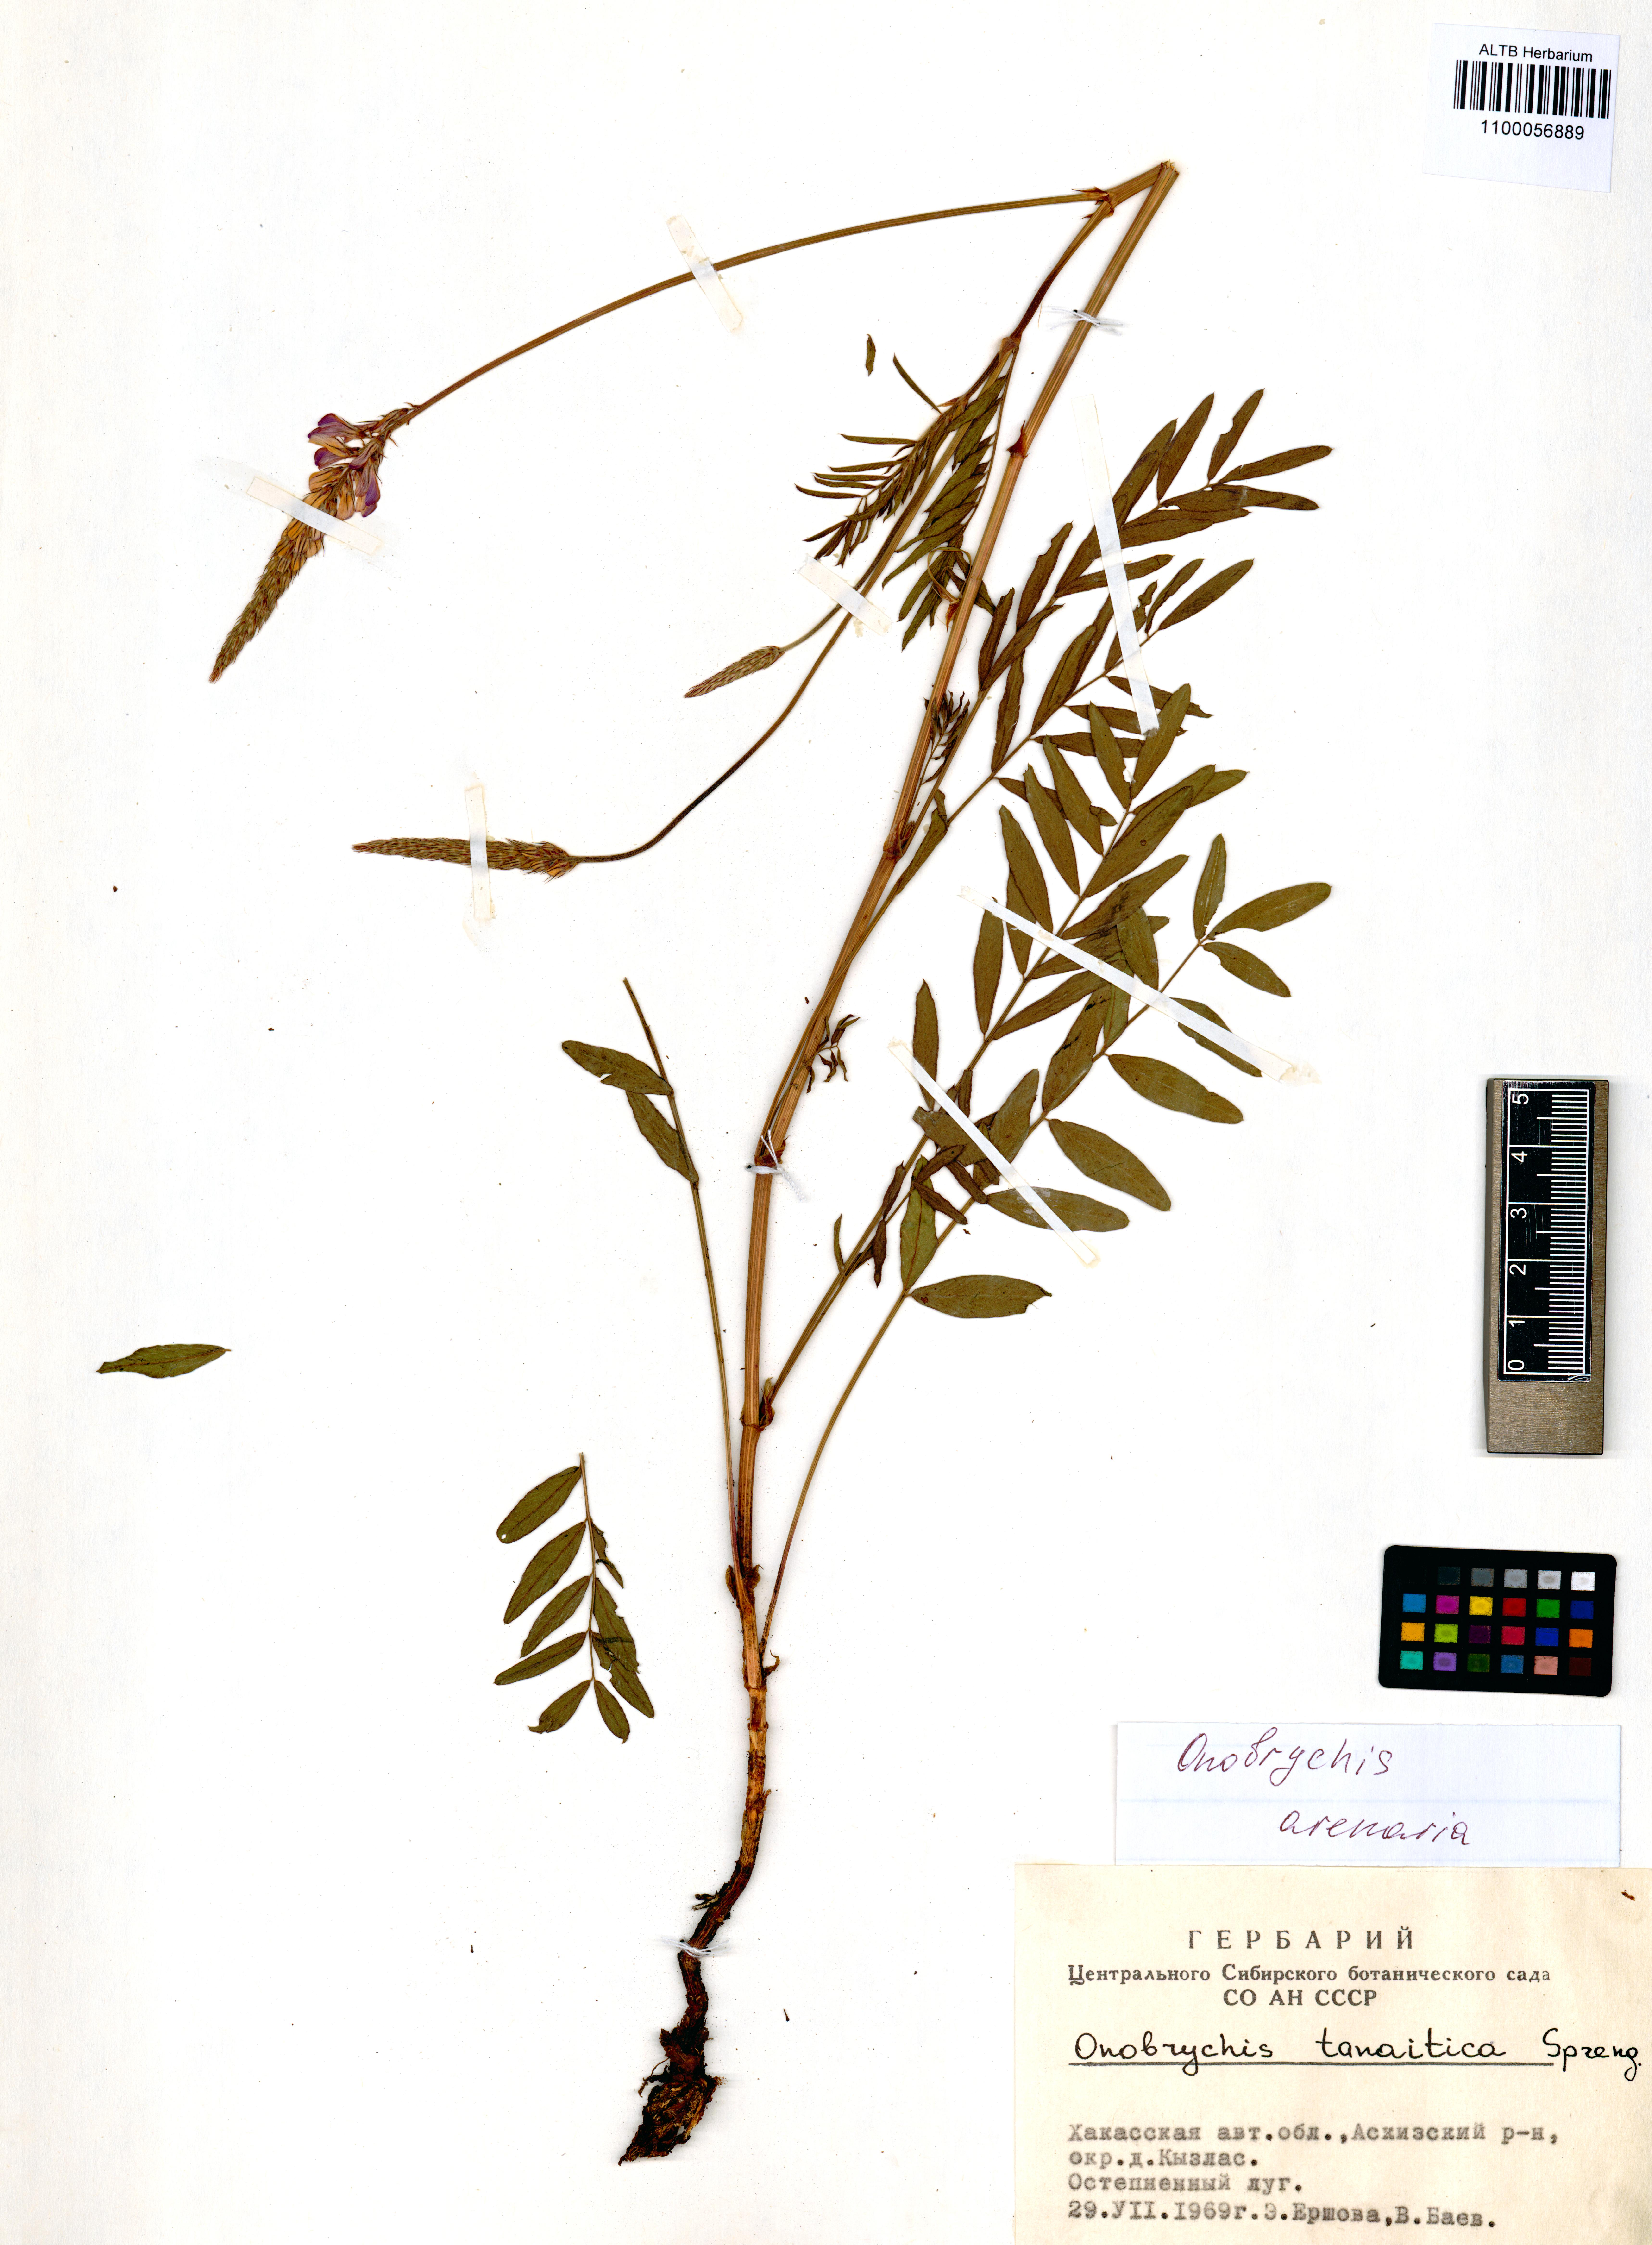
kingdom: Plantae
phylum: Tracheophyta
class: Magnoliopsida
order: Fabales
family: Fabaceae
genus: Onobrychis
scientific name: Onobrychis arenaria
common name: Sand esparcet
